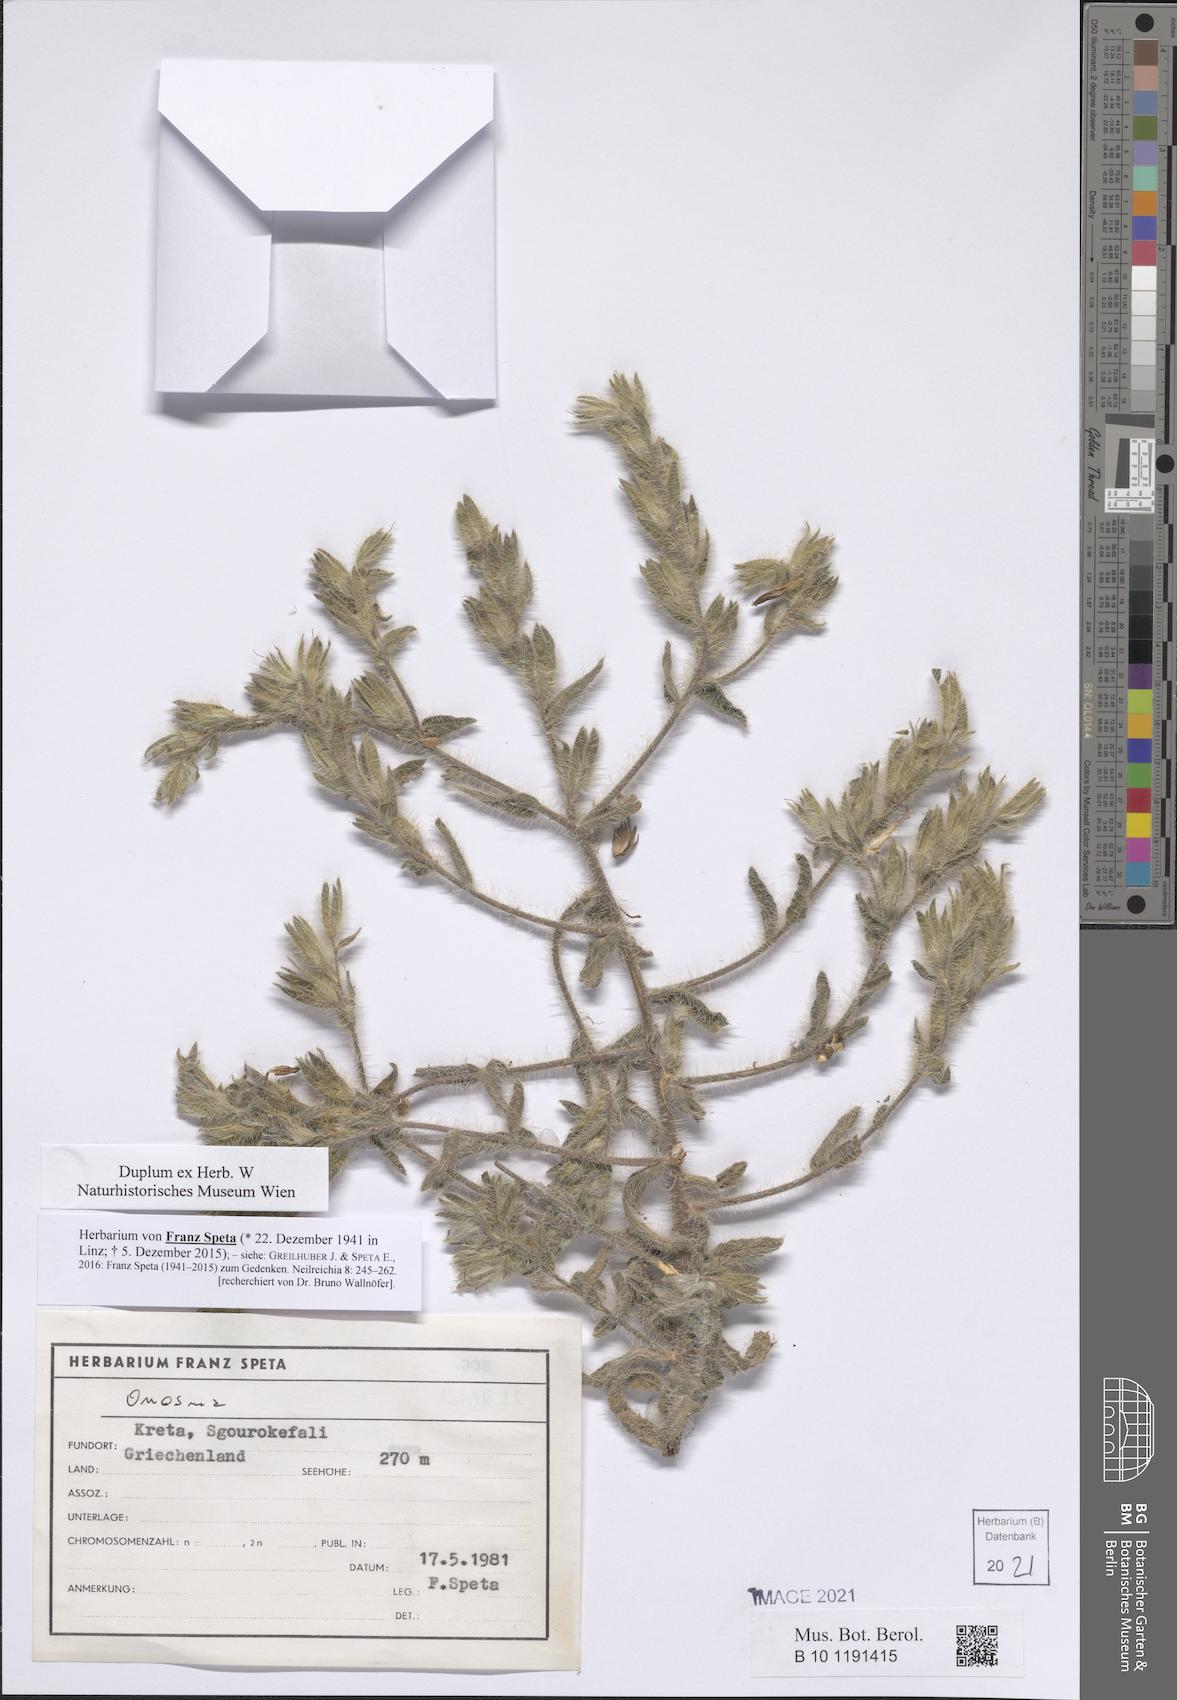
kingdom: Plantae
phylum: Tracheophyta
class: Magnoliopsida
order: Boraginales
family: Boraginaceae
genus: Onosma
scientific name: Onosma
